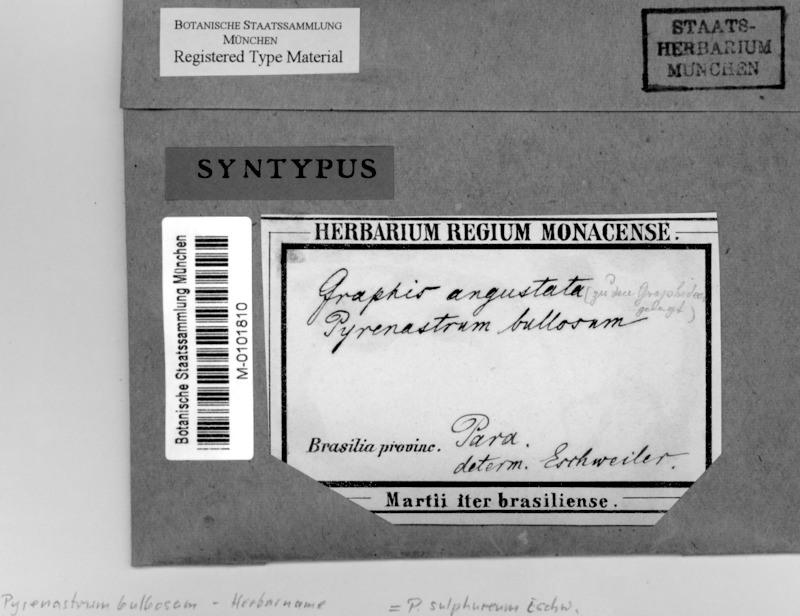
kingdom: Fungi
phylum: Ascomycota
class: Dothideomycetes
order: Trypetheliales
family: Trypetheliaceae
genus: Astrothelium
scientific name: Astrothelium sulphureum
